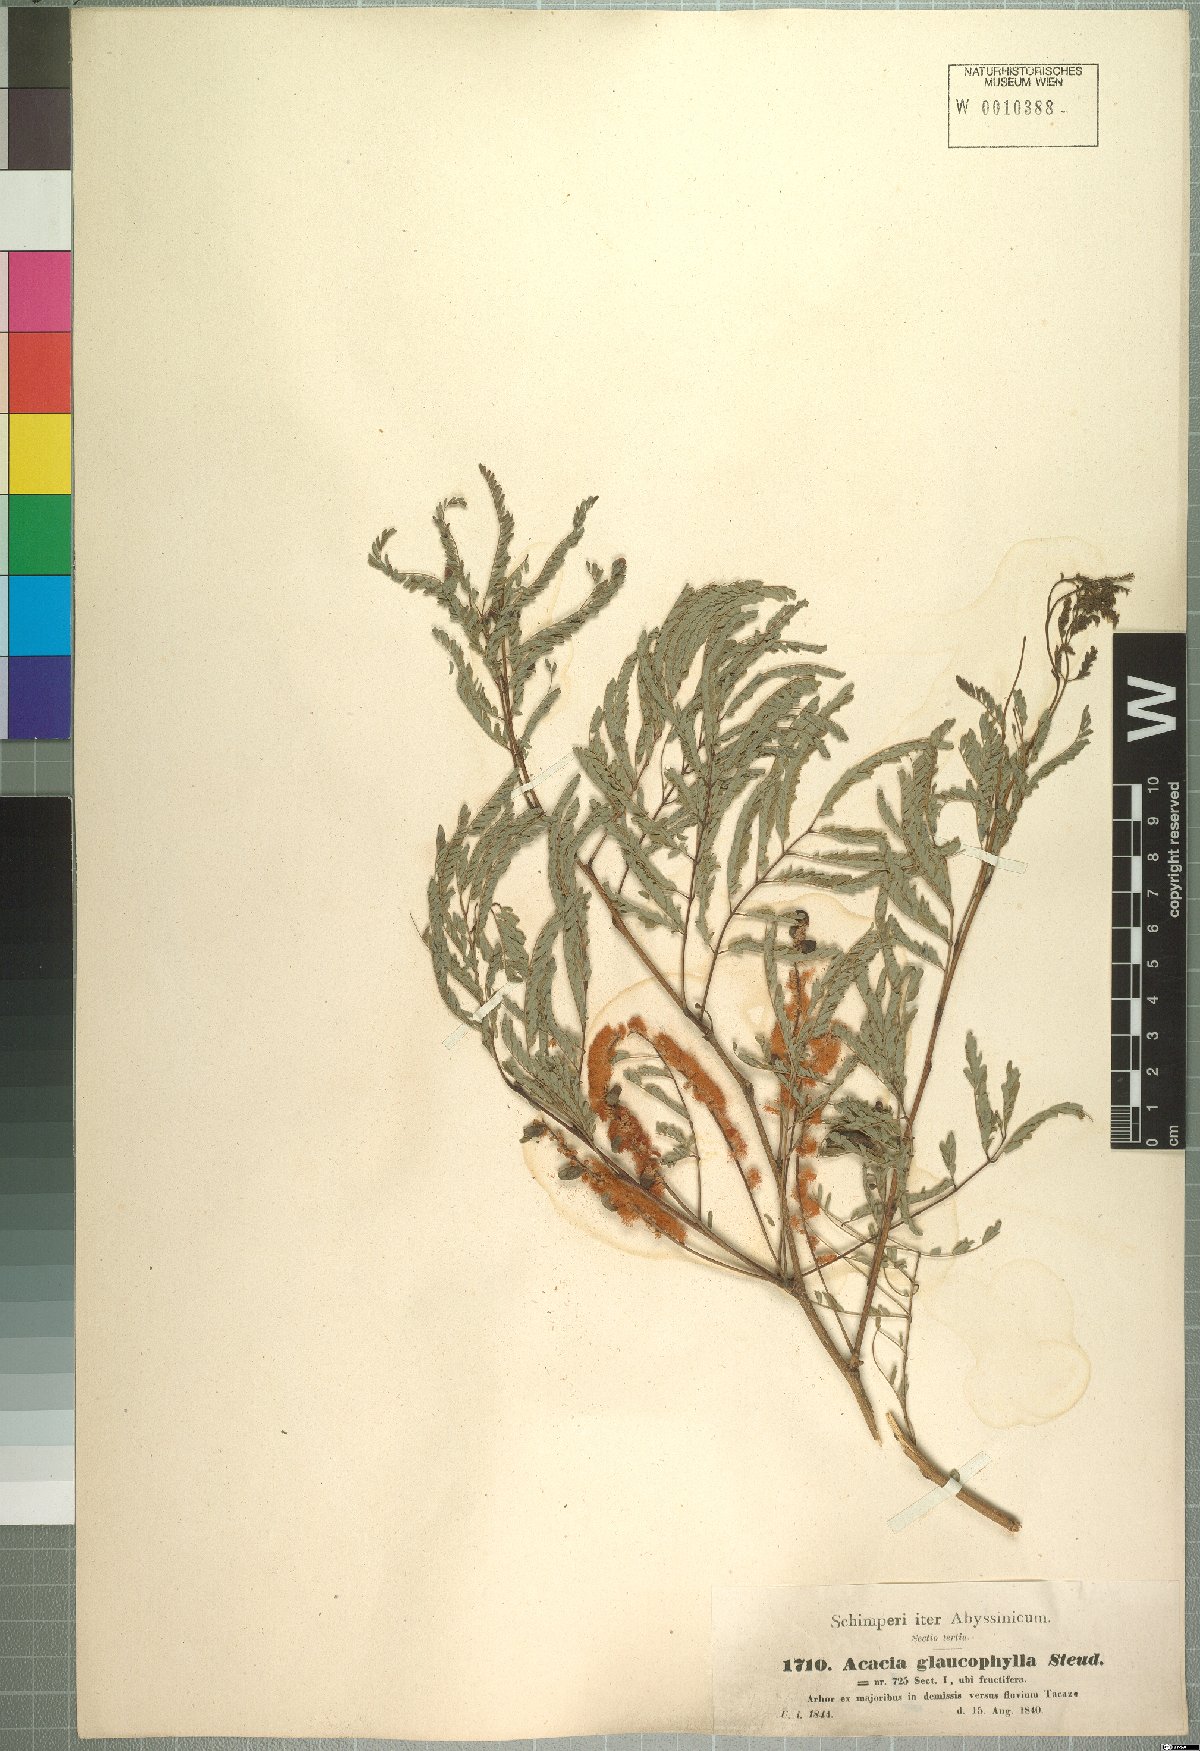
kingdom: Plantae
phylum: Tracheophyta
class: Magnoliopsida
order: Fabales
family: Fabaceae
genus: Senegalia
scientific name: Senegalia asak
